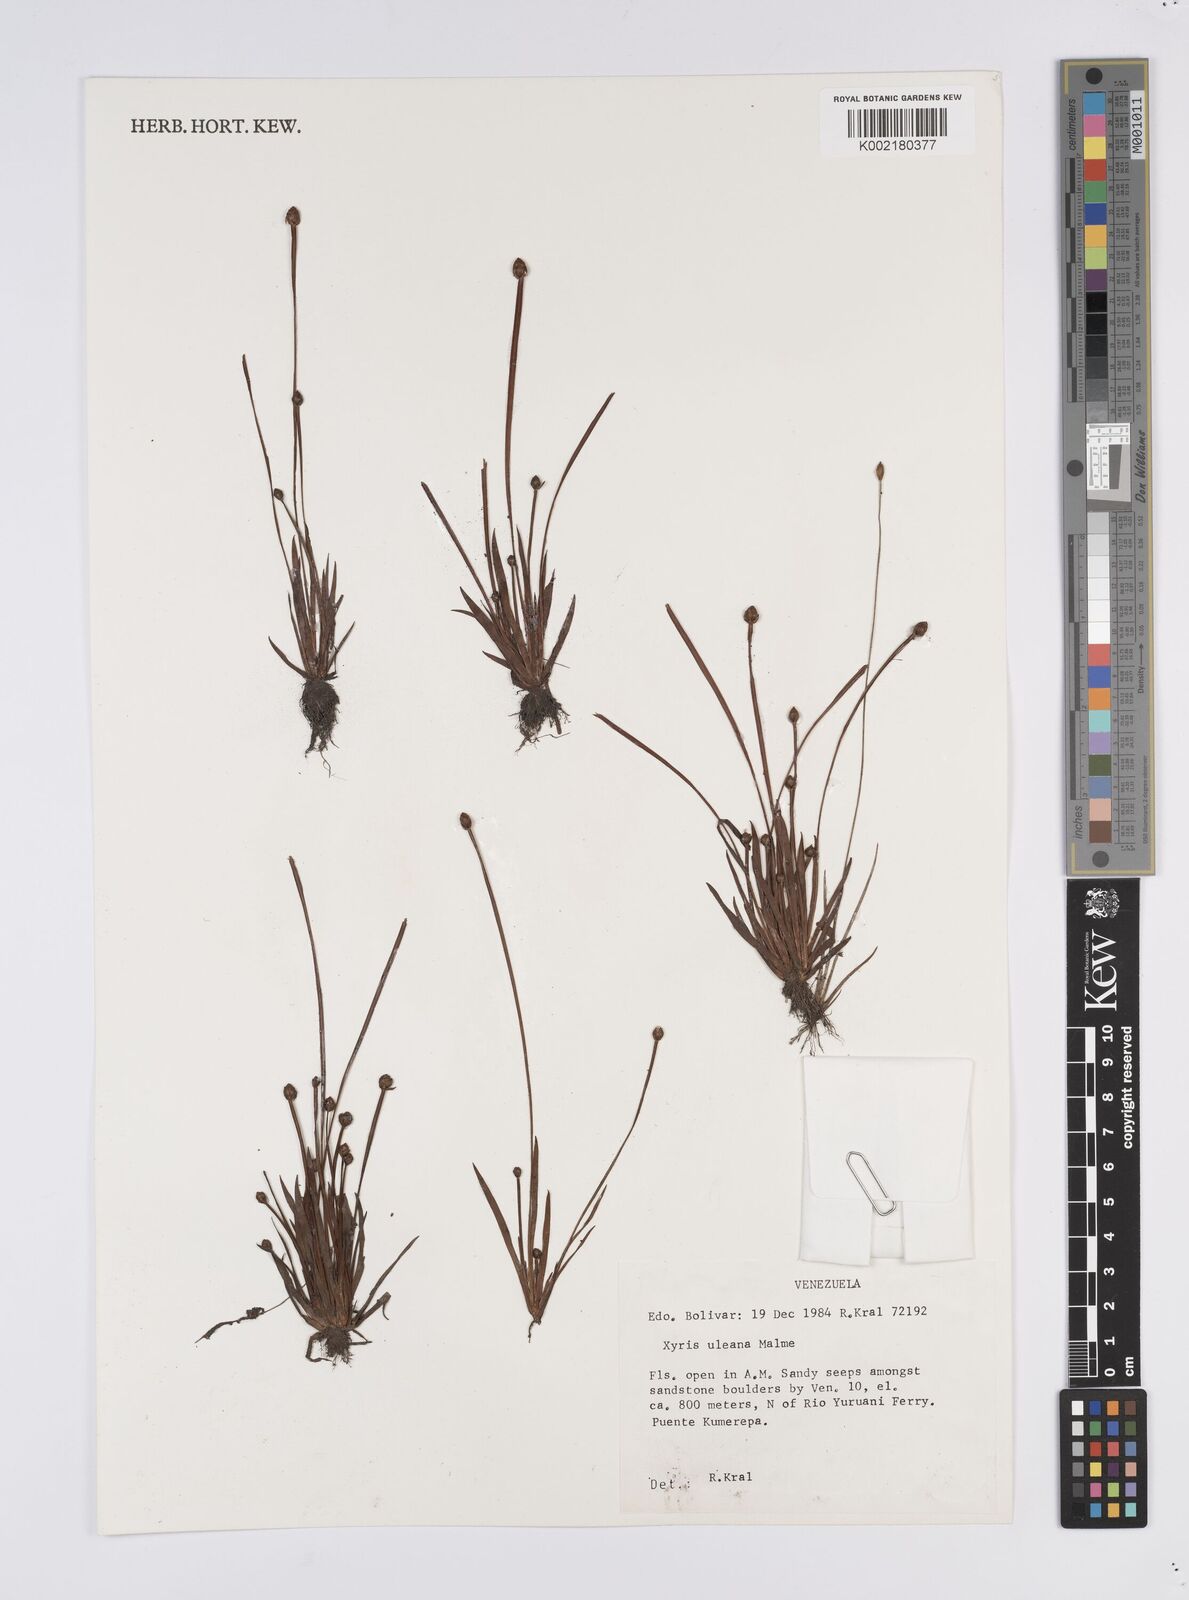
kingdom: Plantae
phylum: Tracheophyta
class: Liliopsida
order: Poales
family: Xyridaceae
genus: Xyris
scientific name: Xyris uleana
